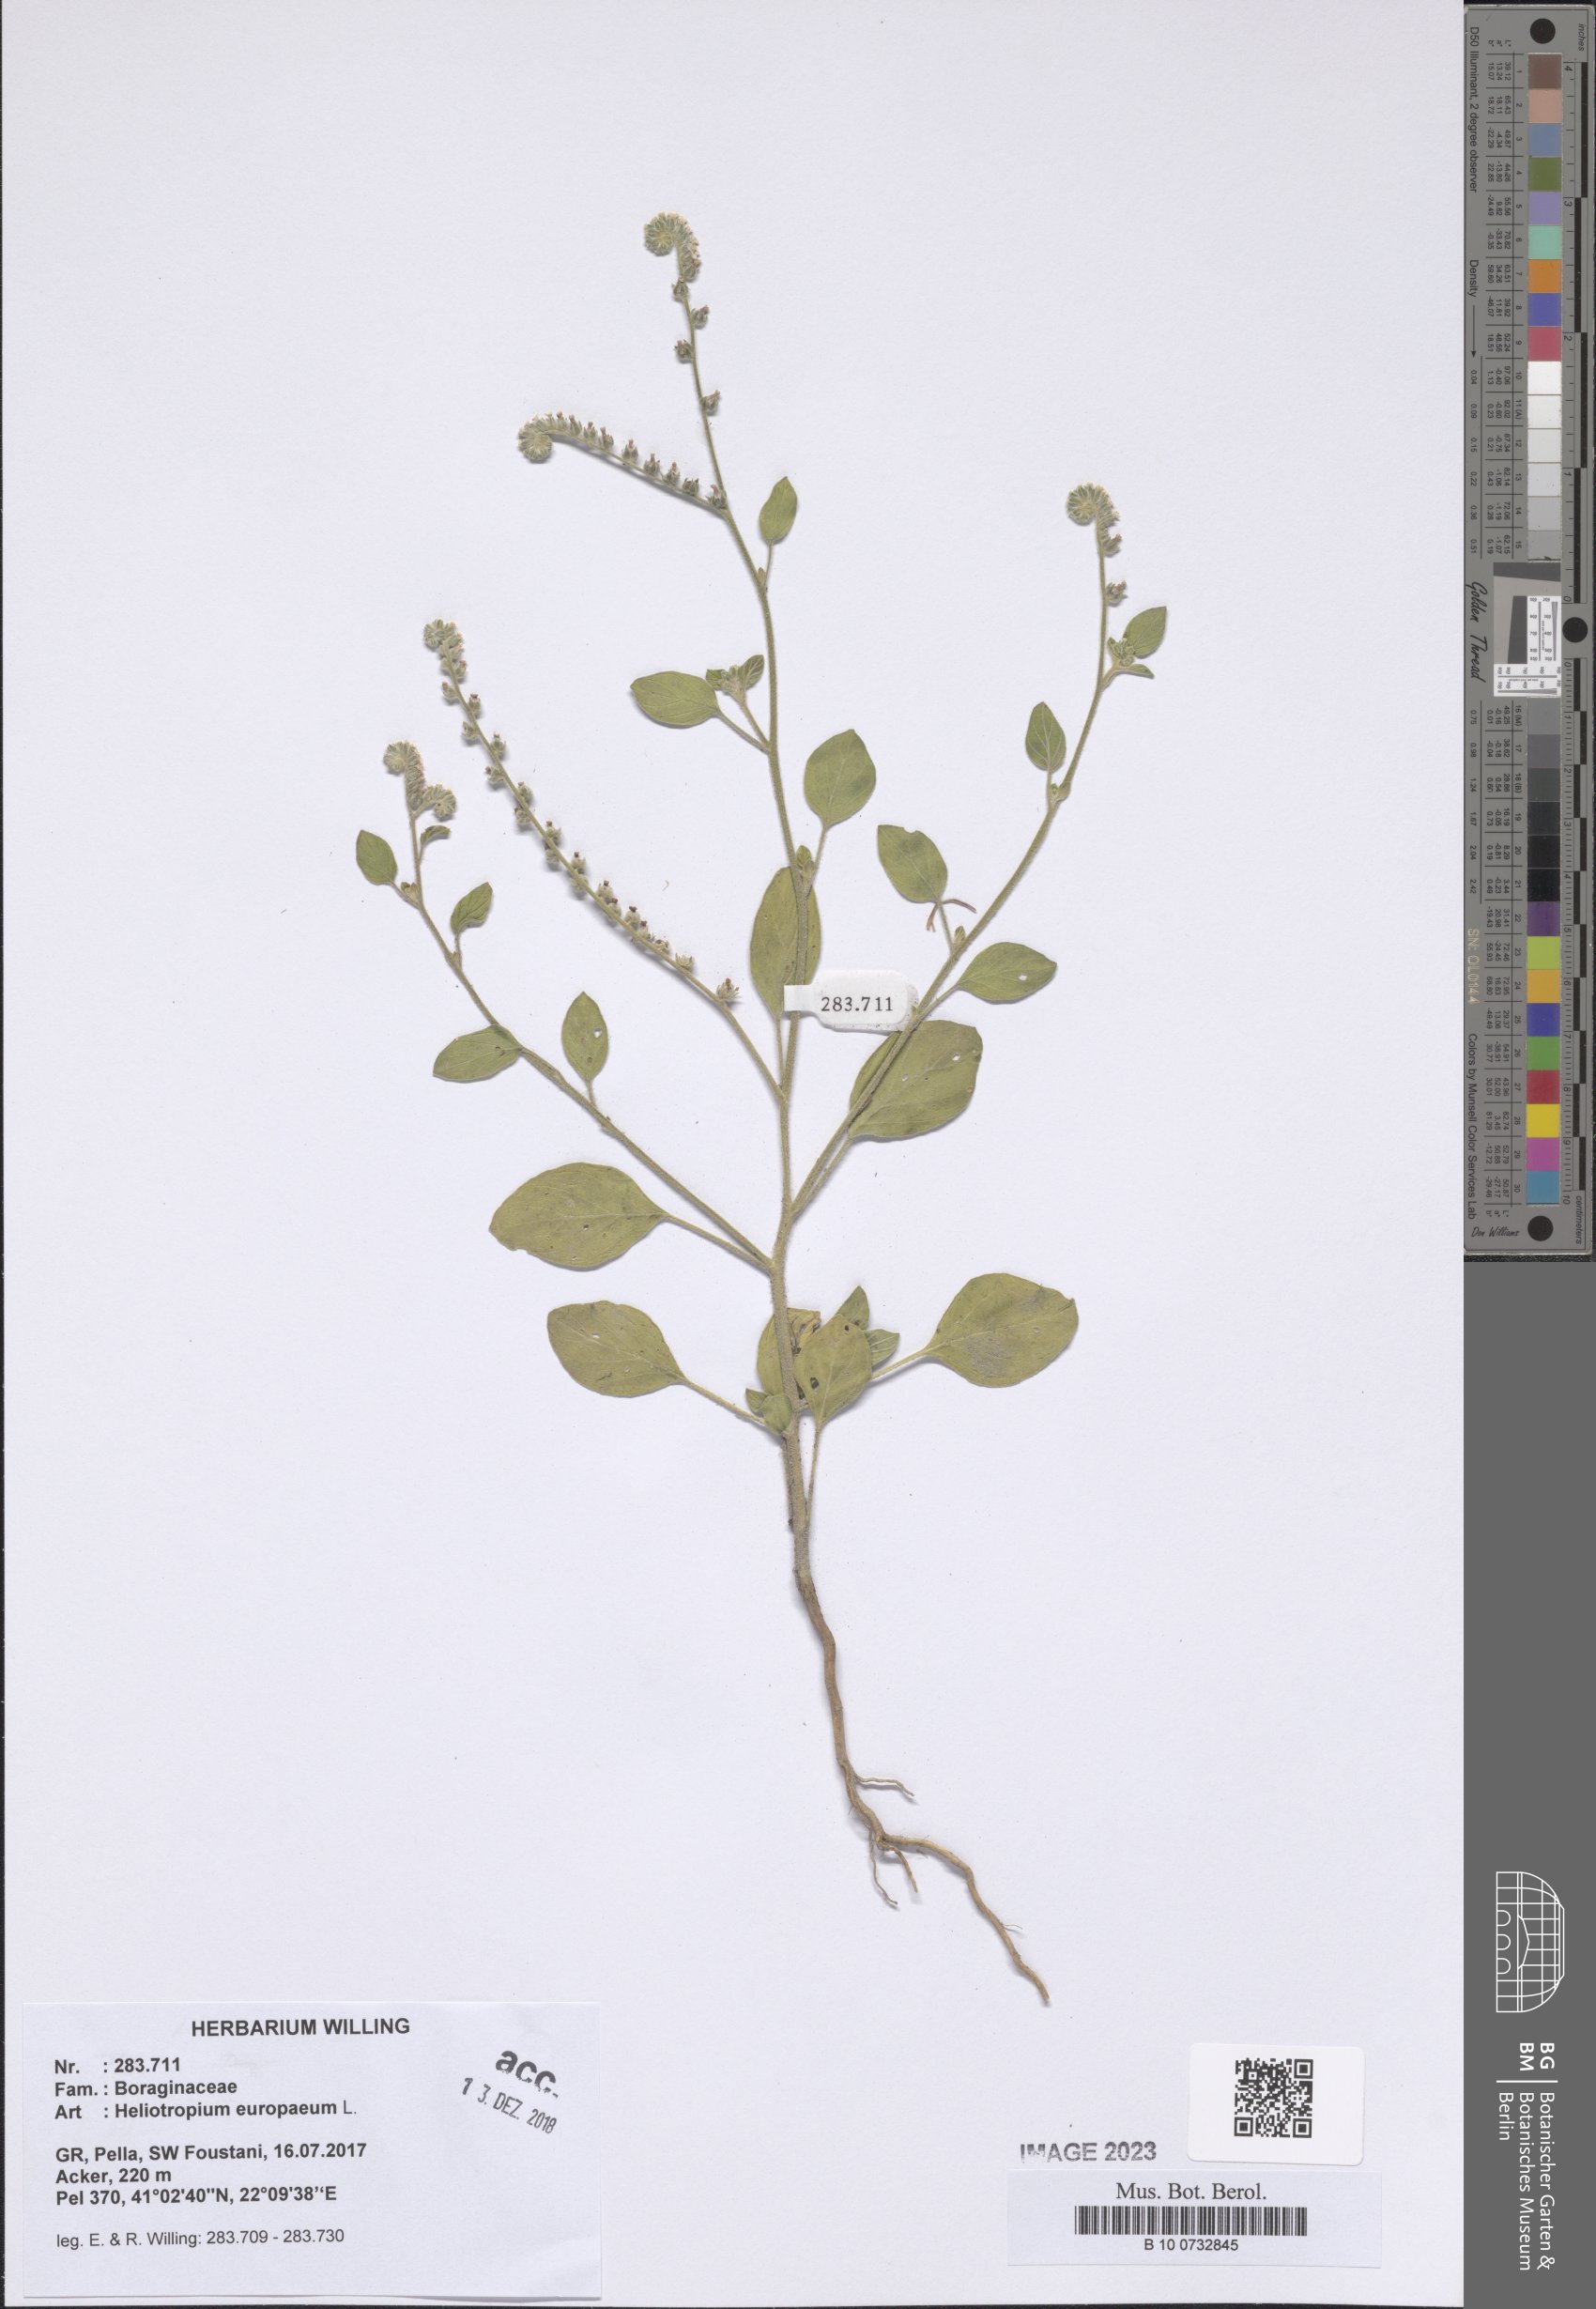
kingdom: Plantae
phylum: Tracheophyta
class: Magnoliopsida
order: Boraginales
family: Heliotropiaceae
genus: Heliotropium
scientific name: Heliotropium europaeum
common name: European heliotrope
